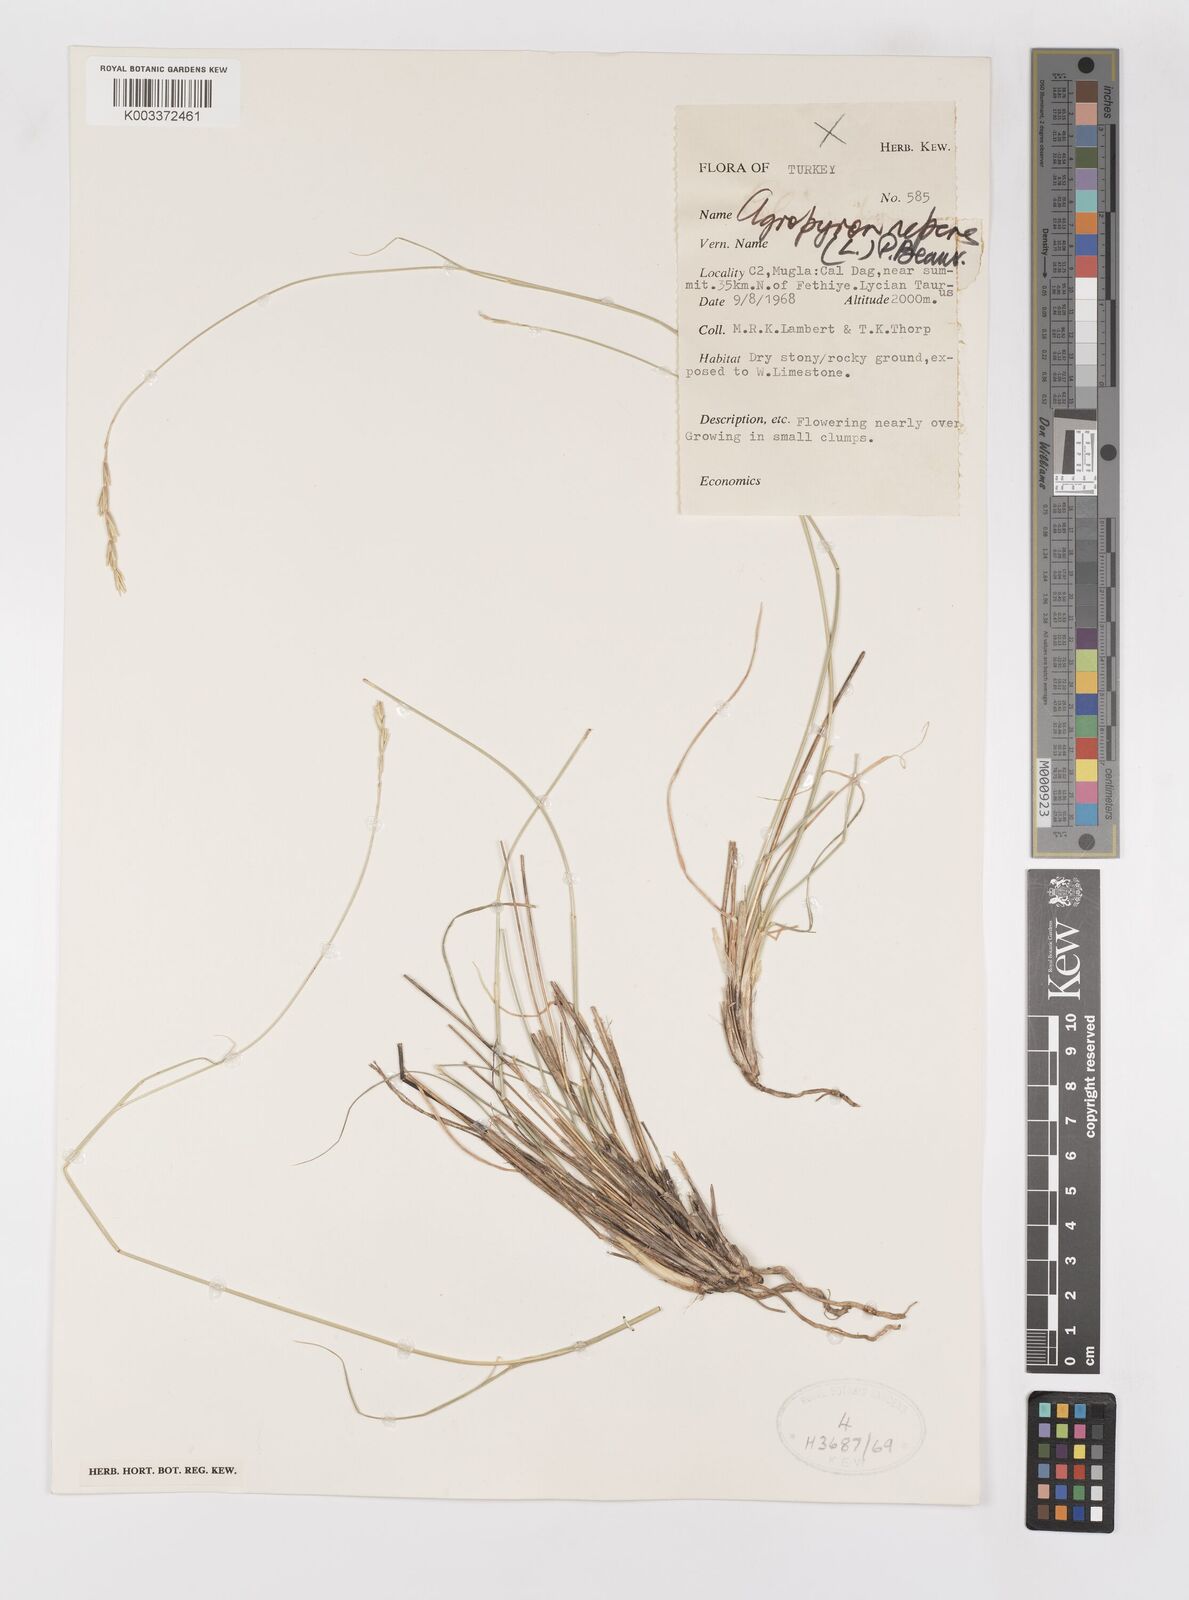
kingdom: Plantae
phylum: Tracheophyta
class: Liliopsida
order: Poales
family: Poaceae
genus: Elymus
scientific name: Elymus repens
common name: Quackgrass
